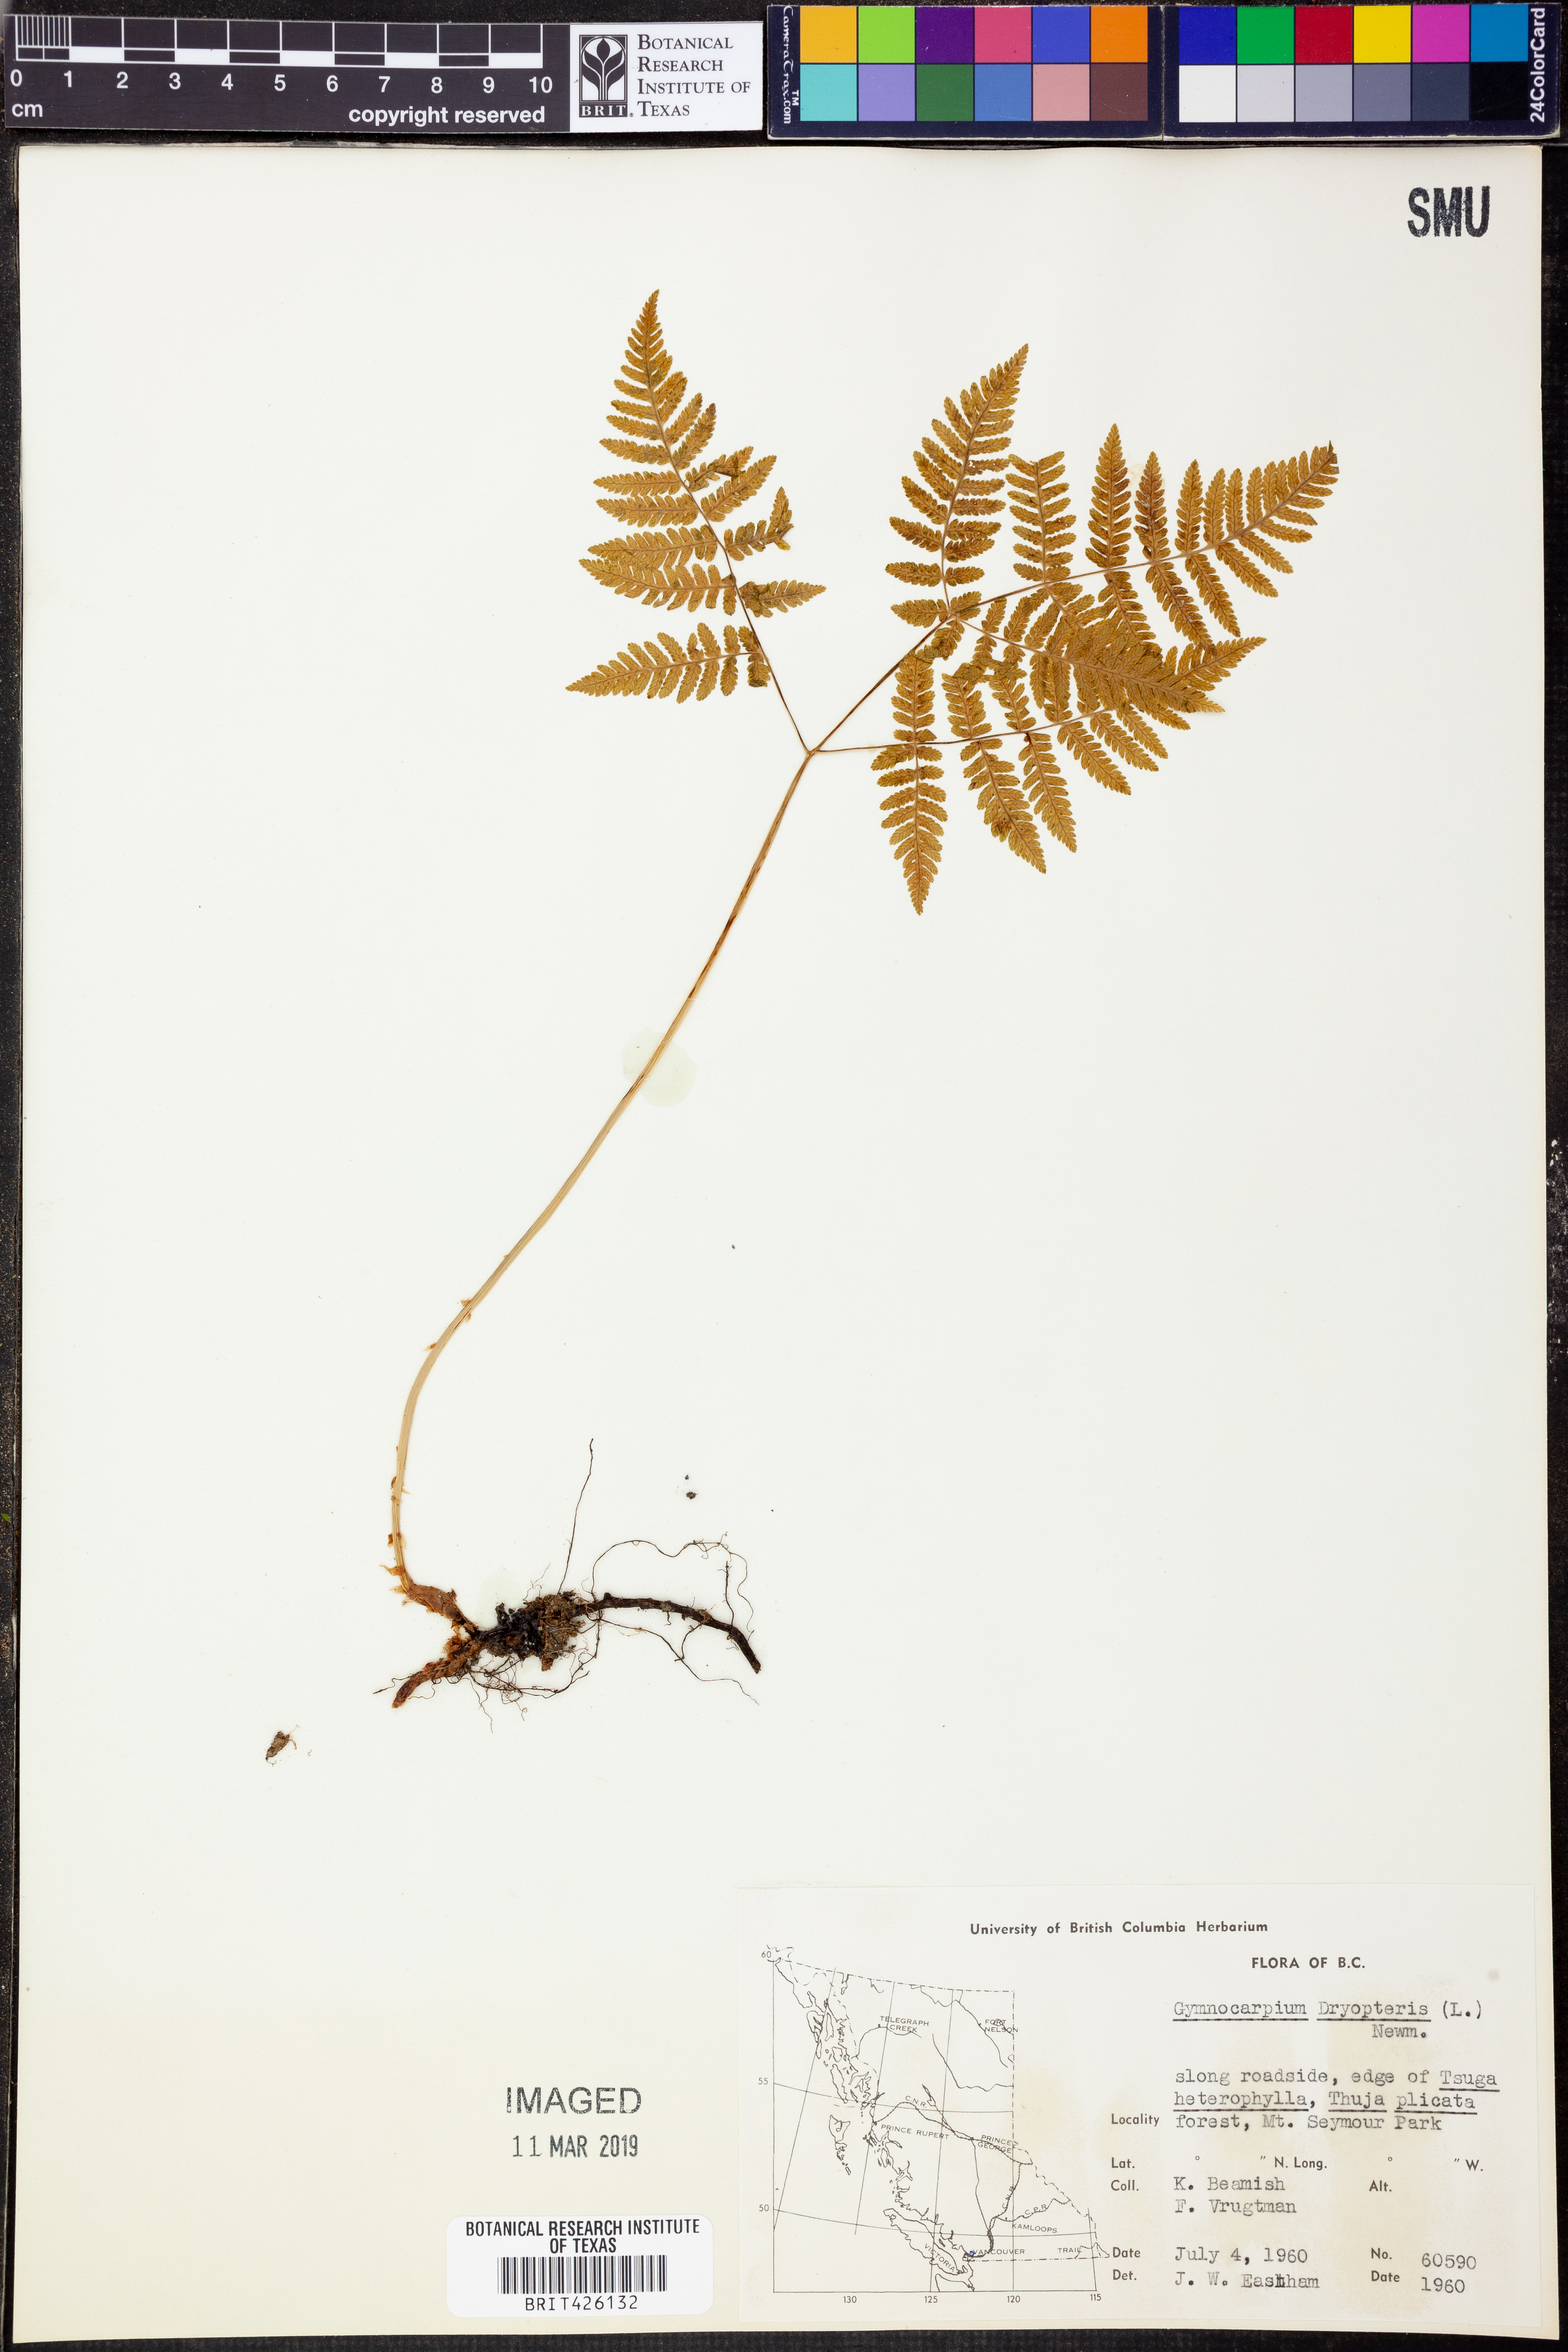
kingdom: Plantae
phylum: Tracheophyta
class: Polypodiopsida
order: Polypodiales
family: Cystopteridaceae
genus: Gymnocarpium
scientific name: Gymnocarpium dryopteris
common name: Oak fern
